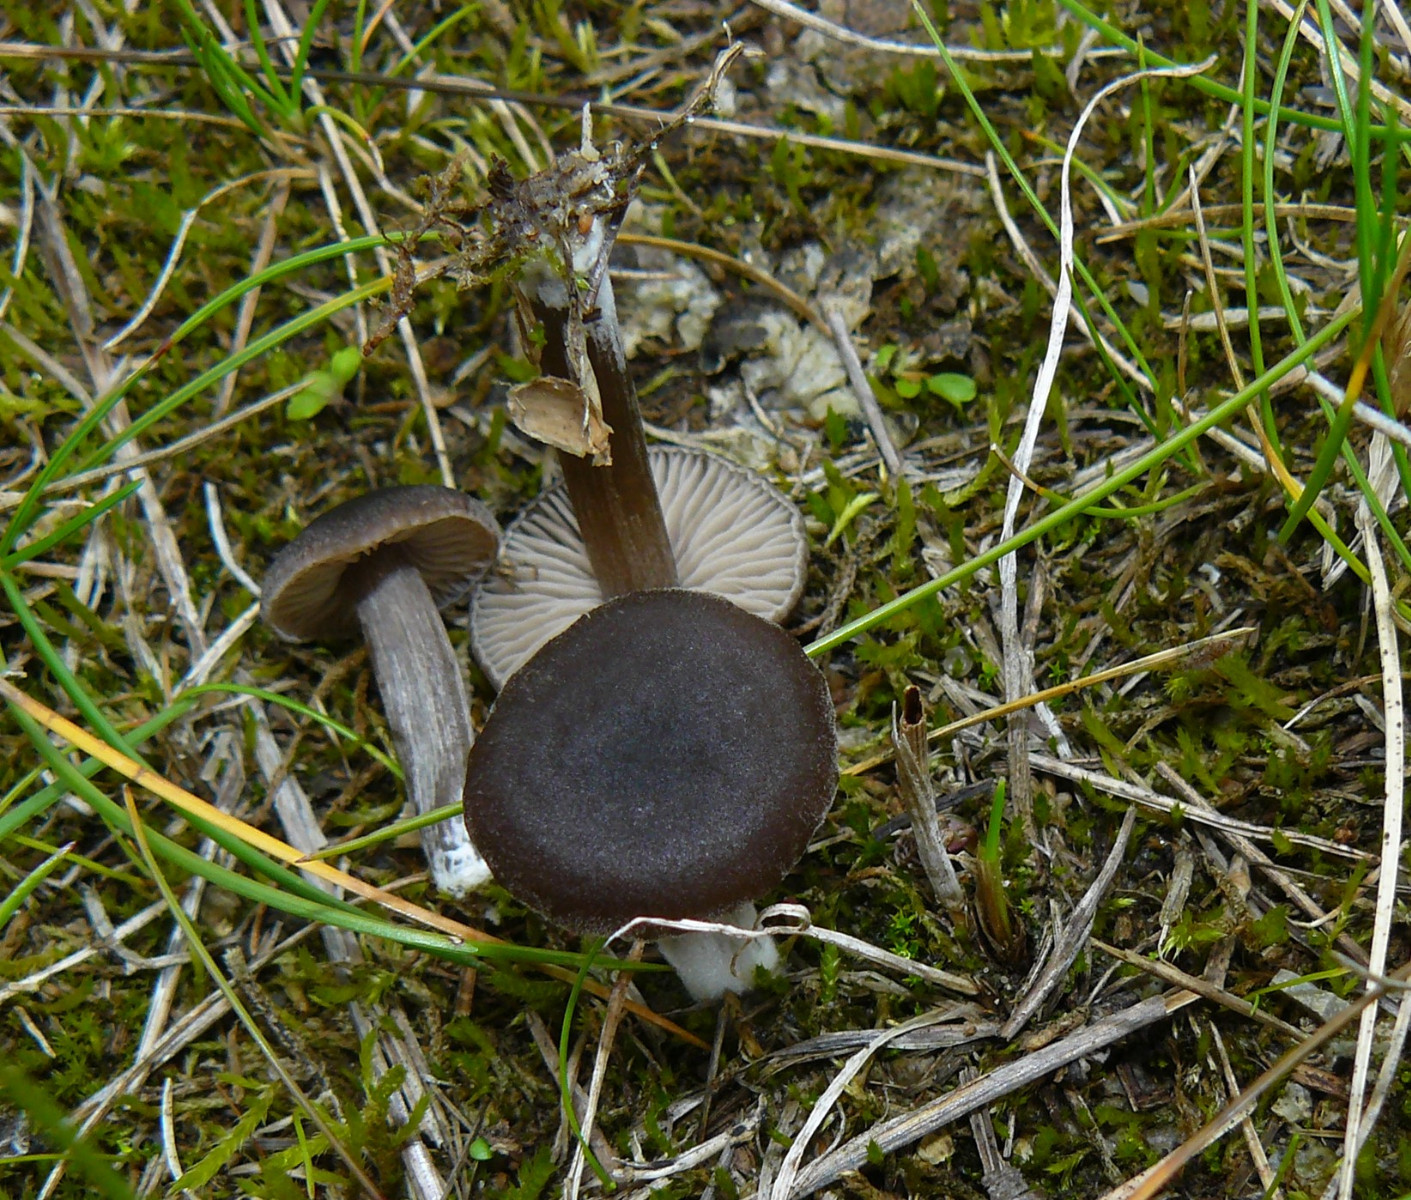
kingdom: Fungi
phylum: Basidiomycota
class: Agaricomycetes
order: Agaricales
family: Entolomataceae
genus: Entoloma
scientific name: Entoloma
